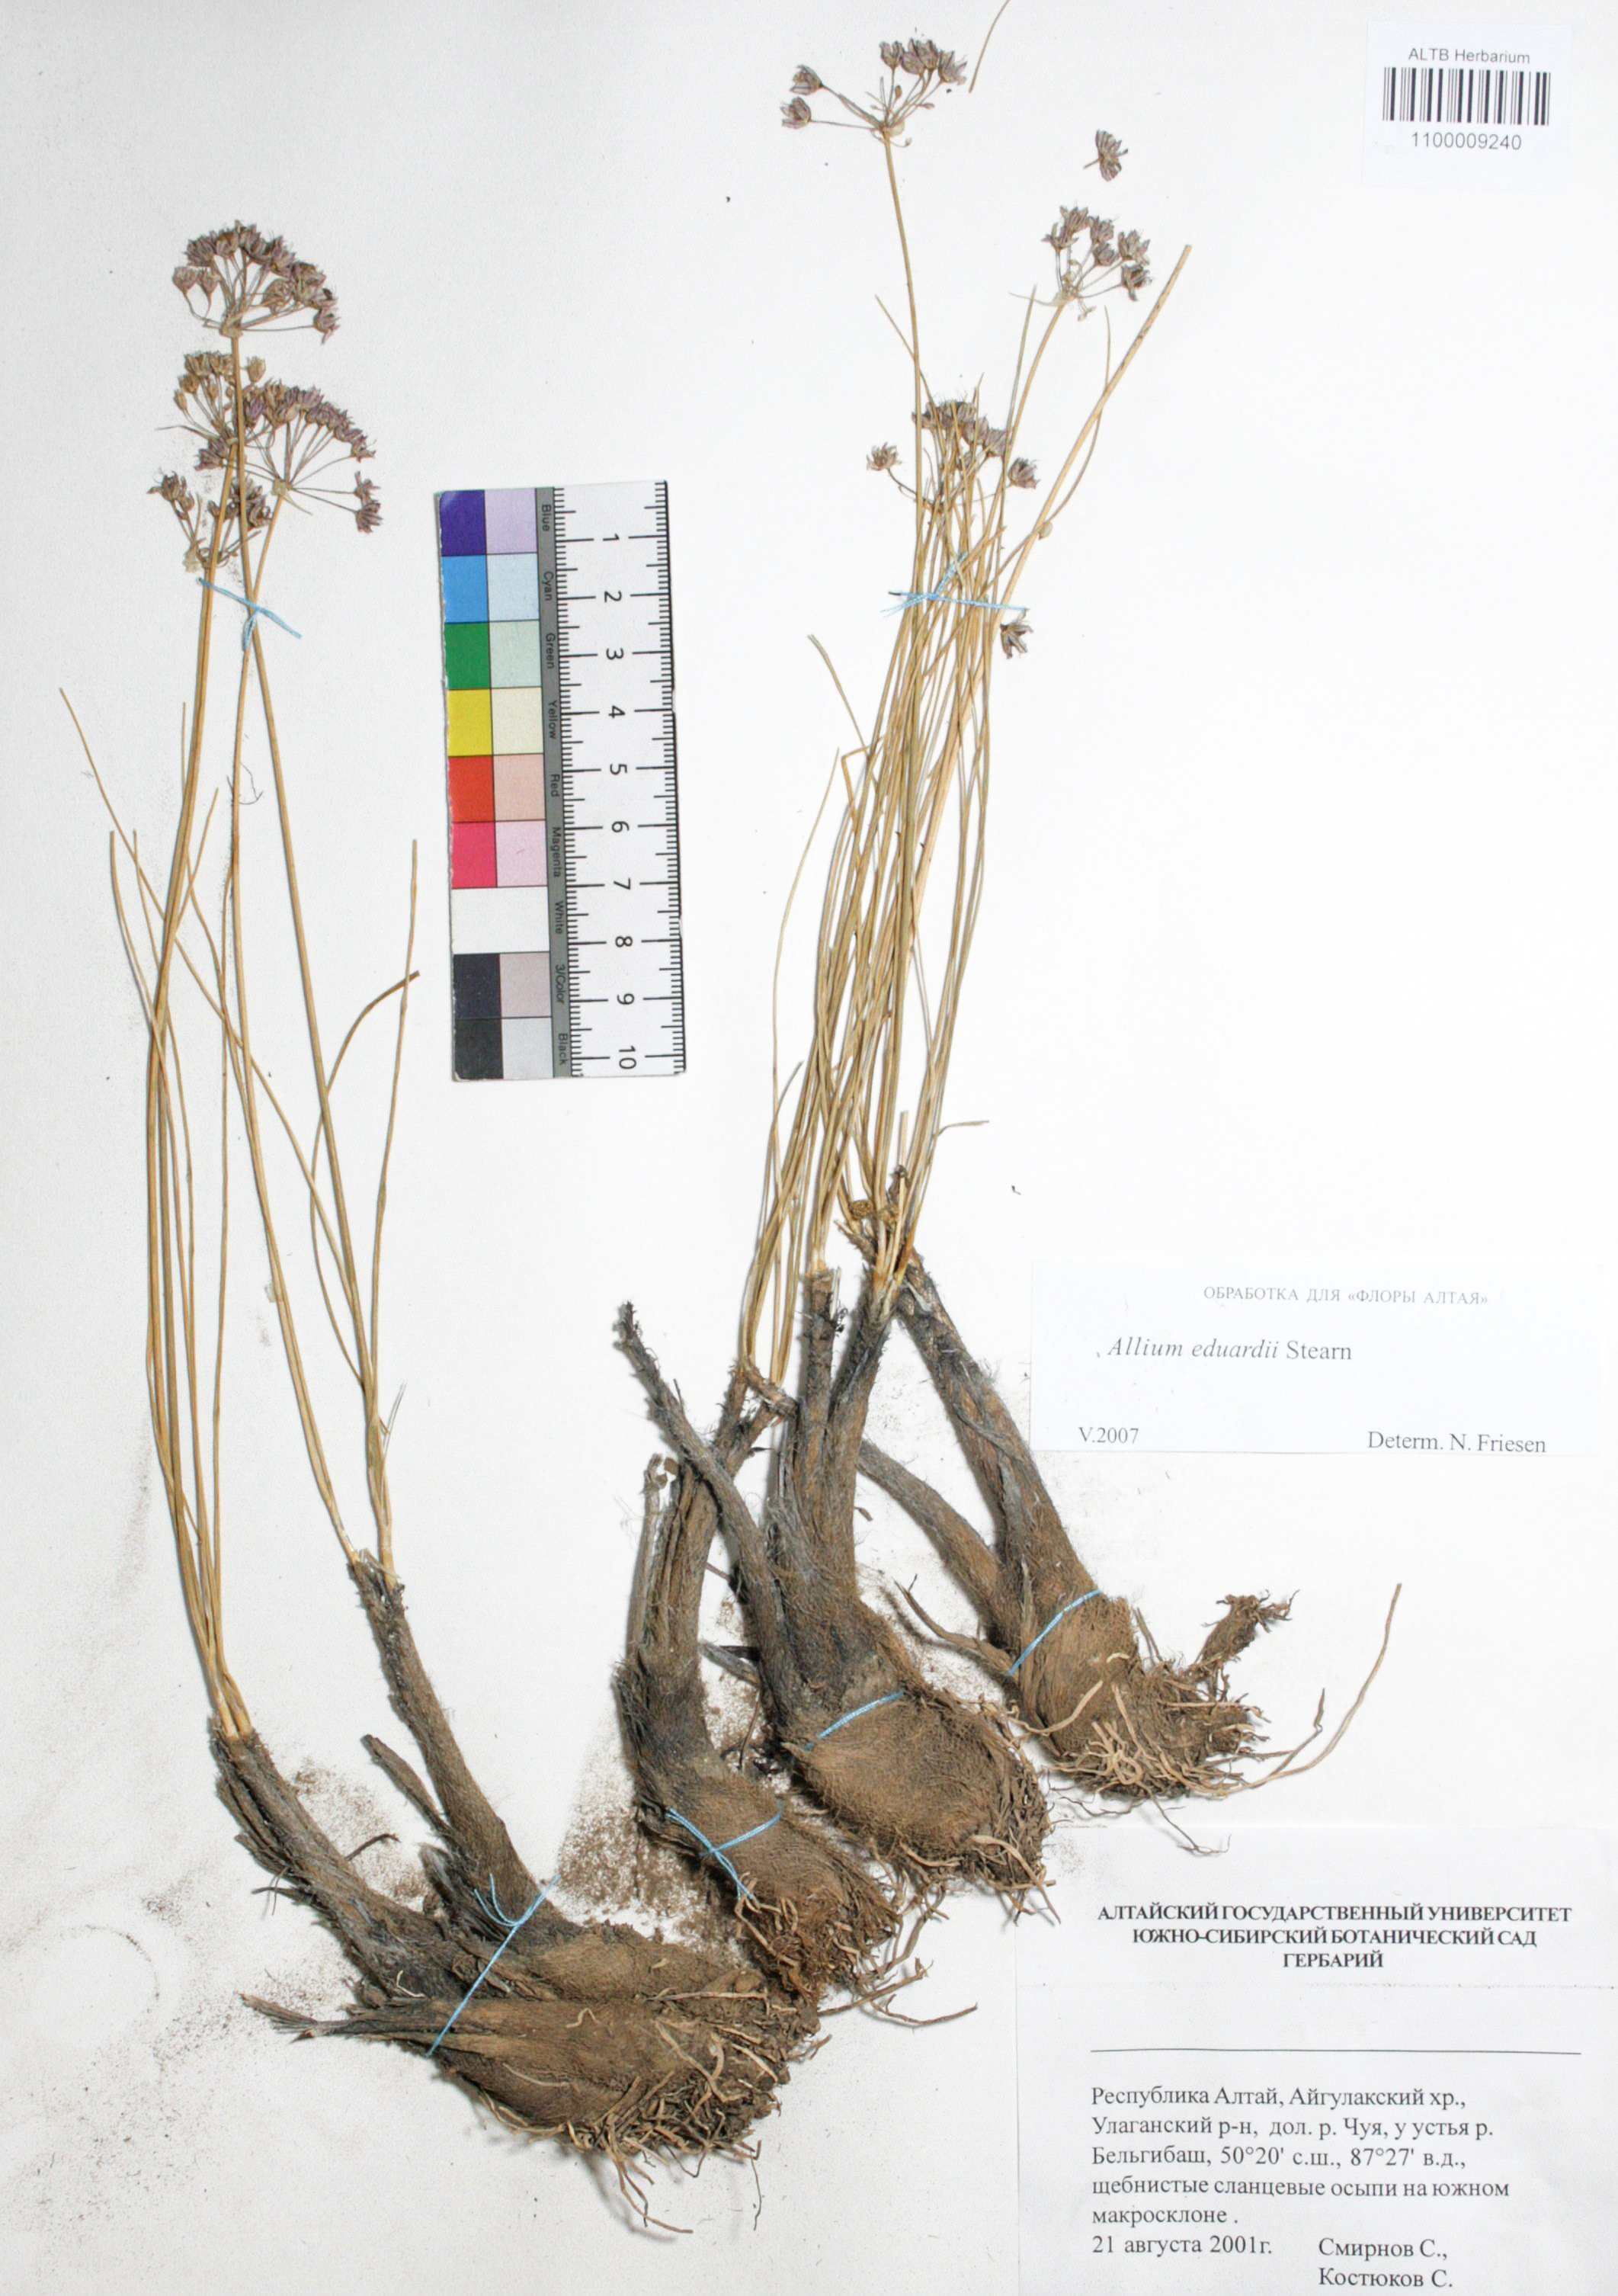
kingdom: Plantae
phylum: Tracheophyta
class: Liliopsida
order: Asparagales
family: Amaryllidaceae
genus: Allium
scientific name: Allium eduardi
